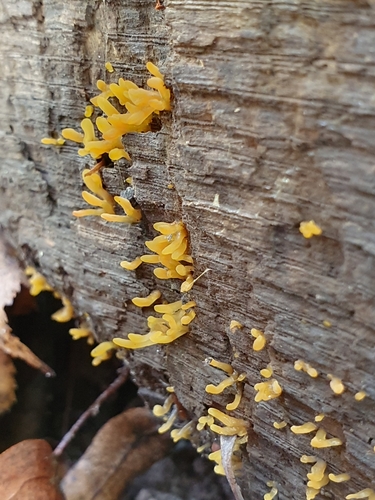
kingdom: Fungi
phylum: Basidiomycota
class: Dacrymycetes
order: Dacrymycetales
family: Dacrymycetaceae
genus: Calocera
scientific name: Calocera glossoides
